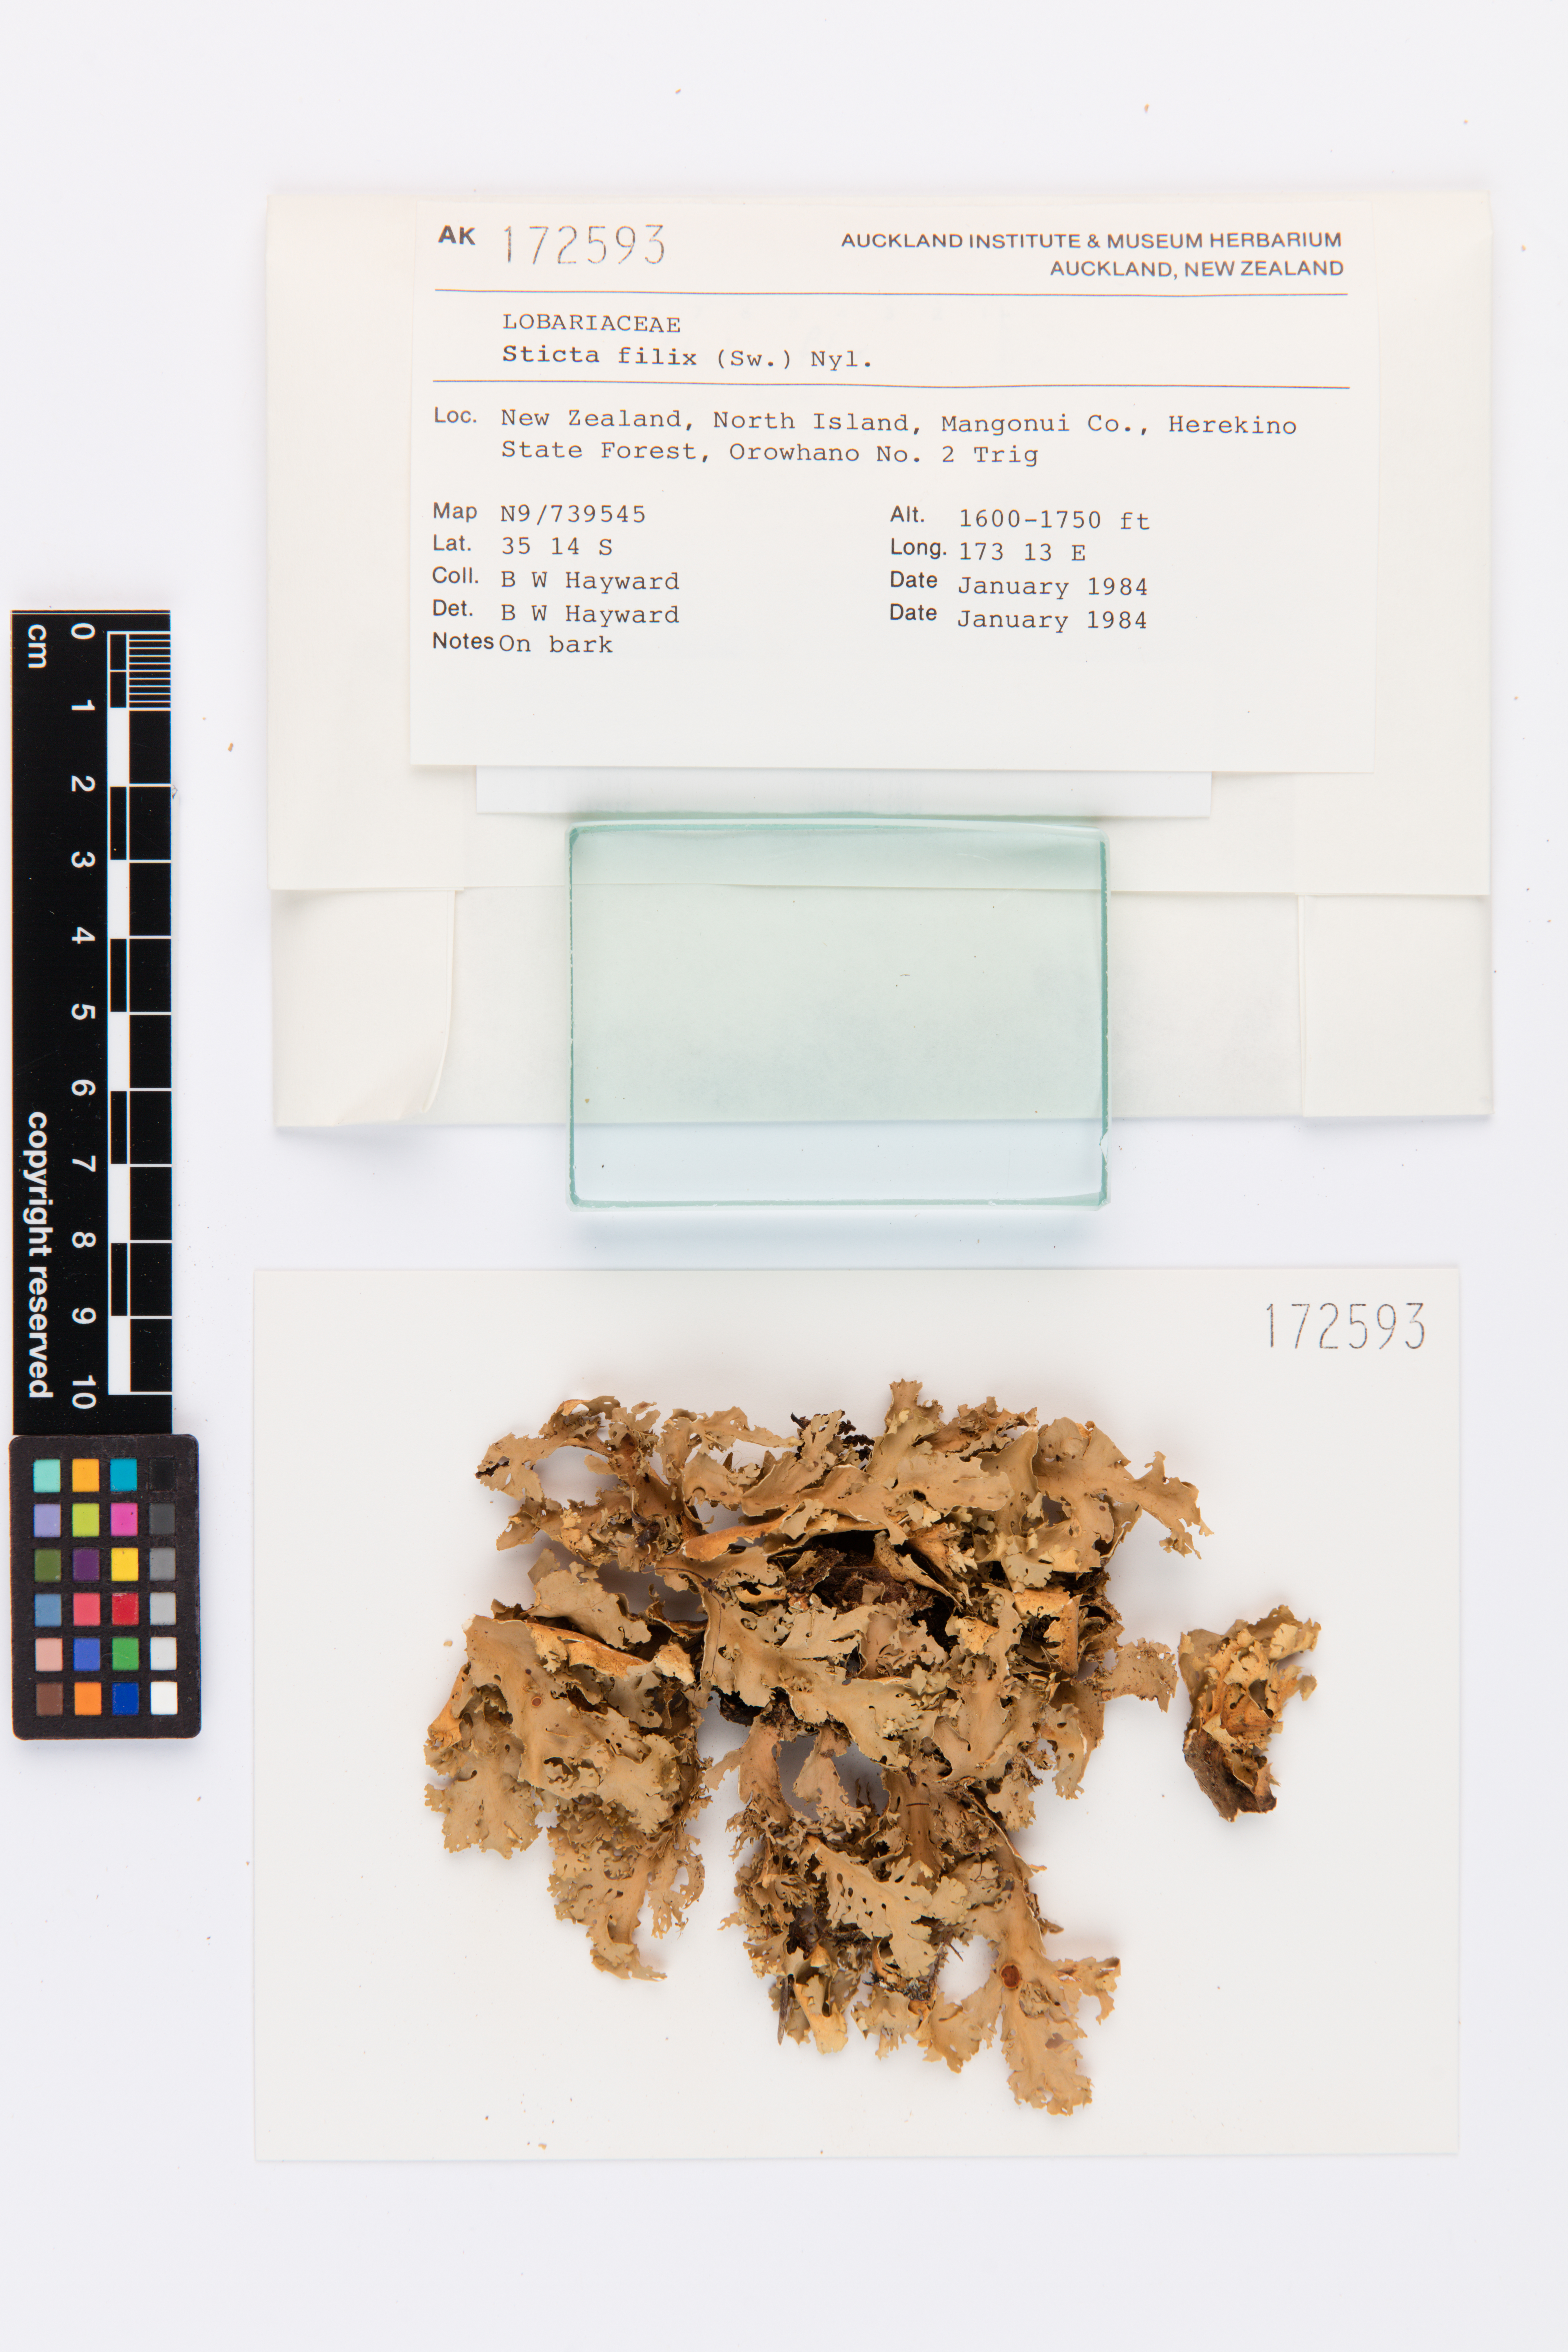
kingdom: Fungi
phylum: Ascomycota
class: Lecanoromycetes
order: Peltigerales
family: Lobariaceae
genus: Sticta
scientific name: Sticta filix
